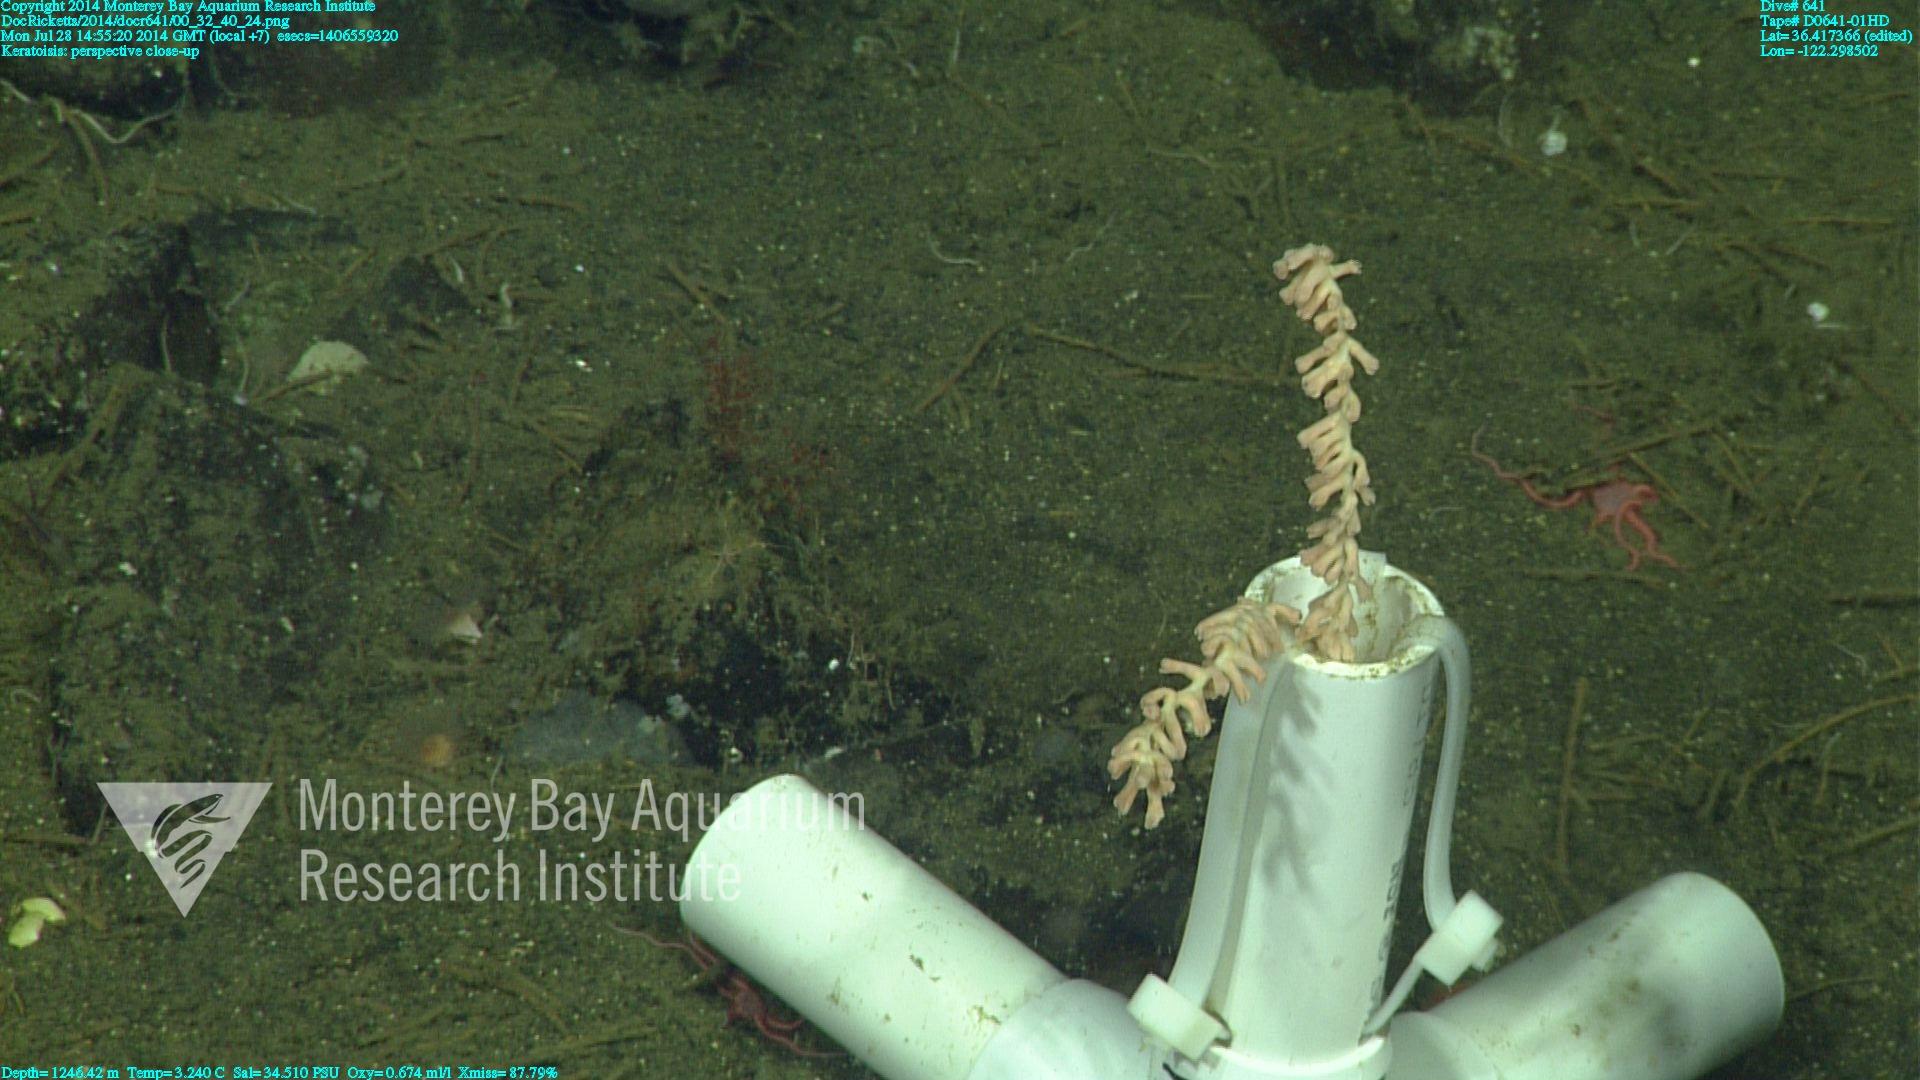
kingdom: Animalia
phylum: Cnidaria
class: Anthozoa
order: Scleralcyonacea
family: Keratoisididae
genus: Keratoisis
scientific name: Keratoisis
